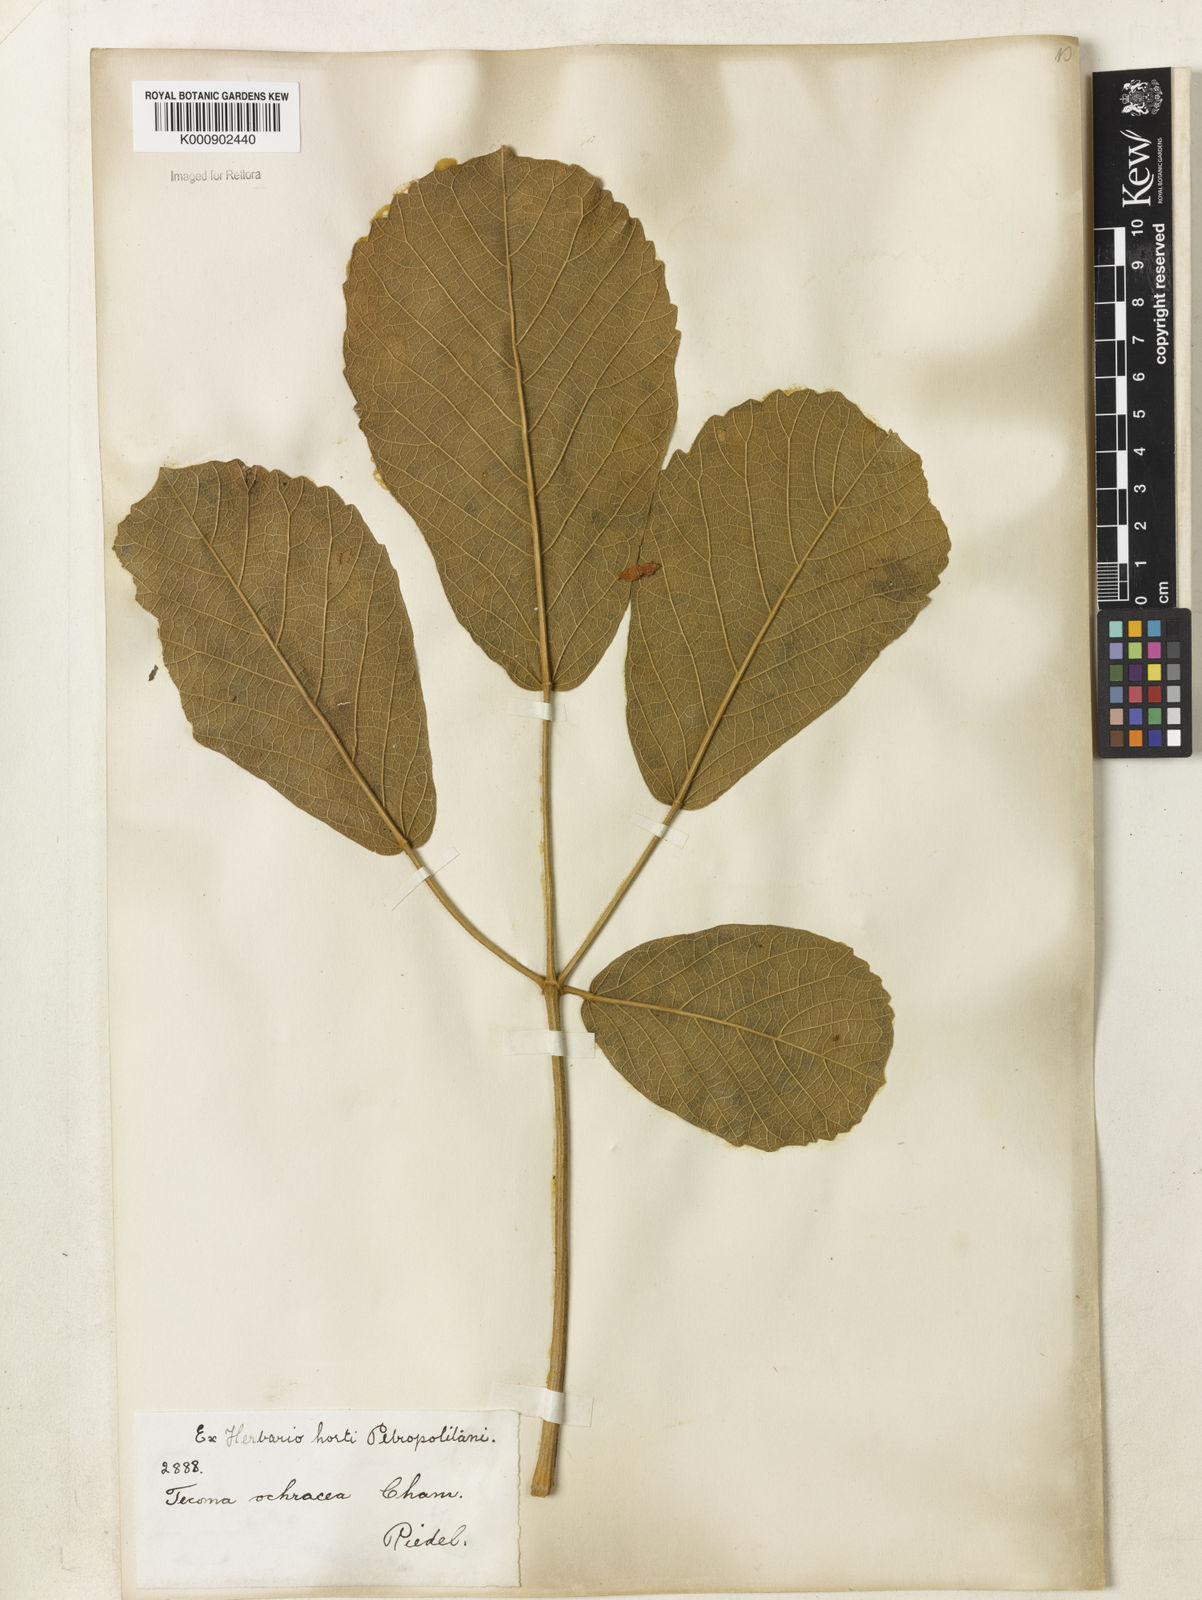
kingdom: Plantae
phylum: Tracheophyta
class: Magnoliopsida
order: Lamiales
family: Bignoniaceae
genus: Handroanthus
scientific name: Handroanthus ochraceus
